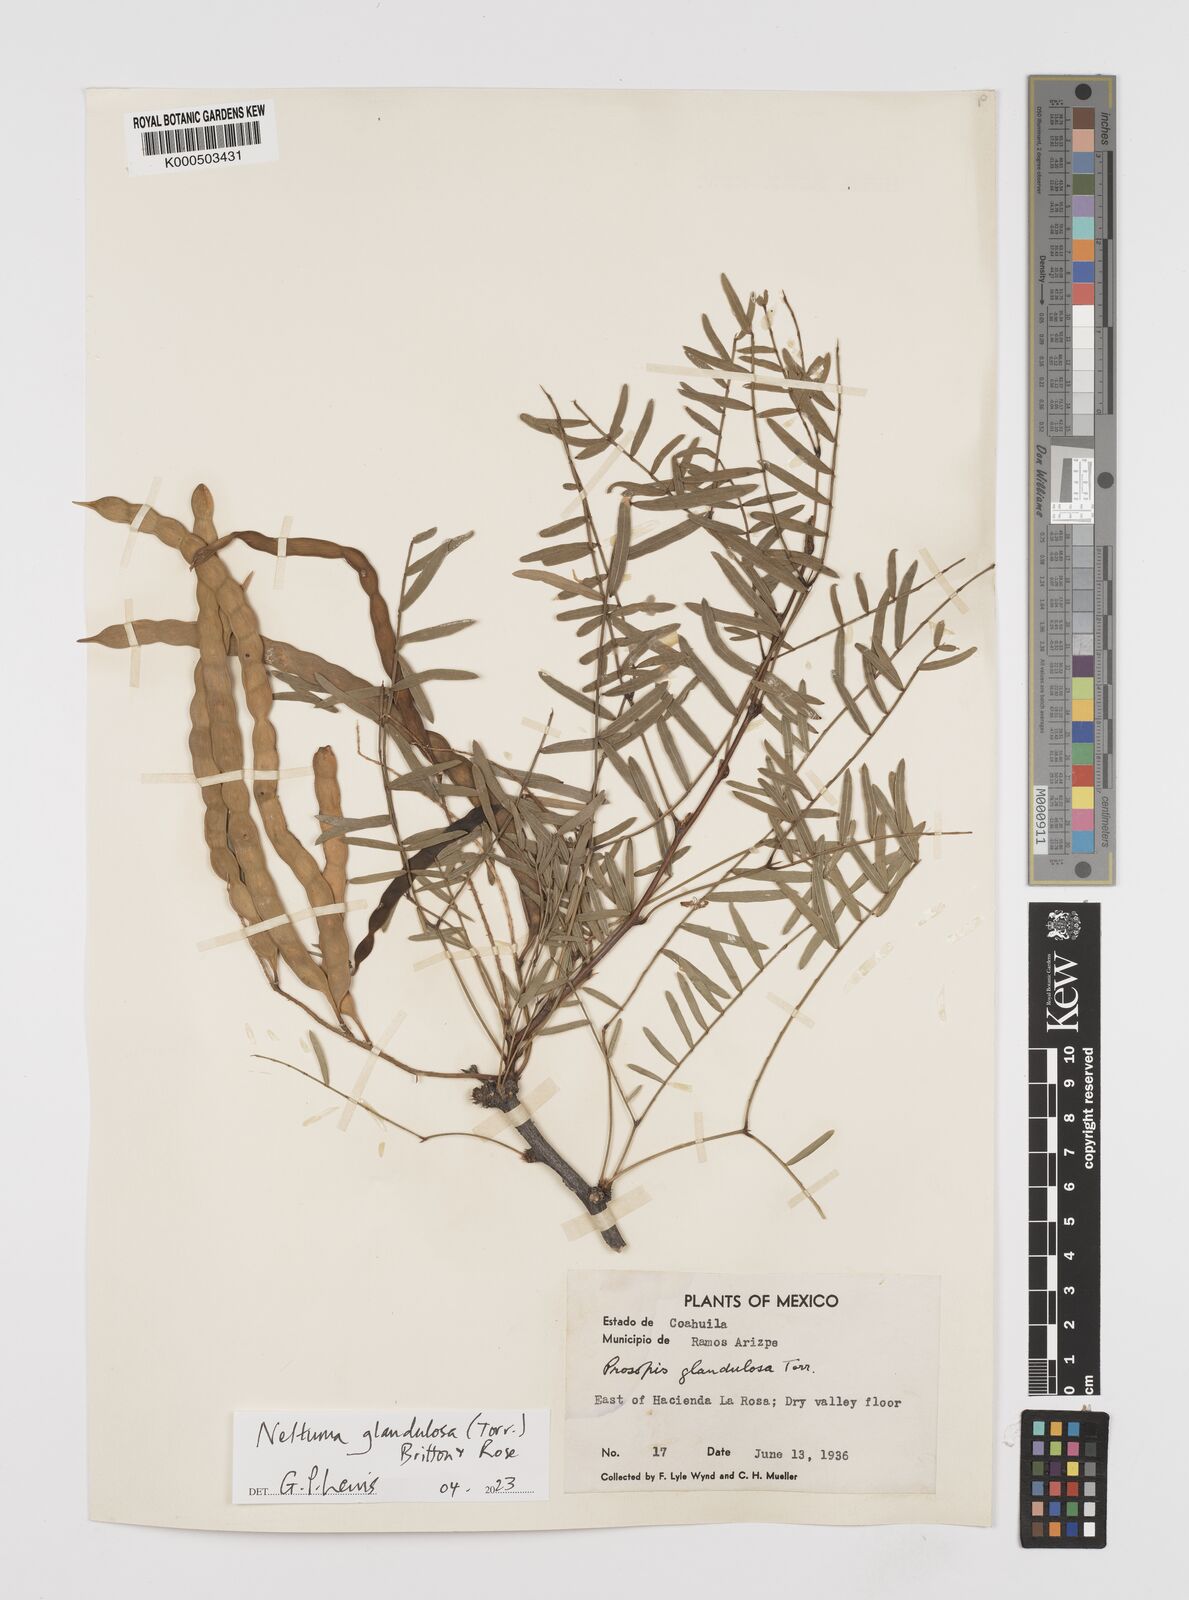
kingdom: Plantae
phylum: Tracheophyta
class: Magnoliopsida
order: Fabales
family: Fabaceae
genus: Prosopis
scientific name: Prosopis juliflora
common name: Mesquite
